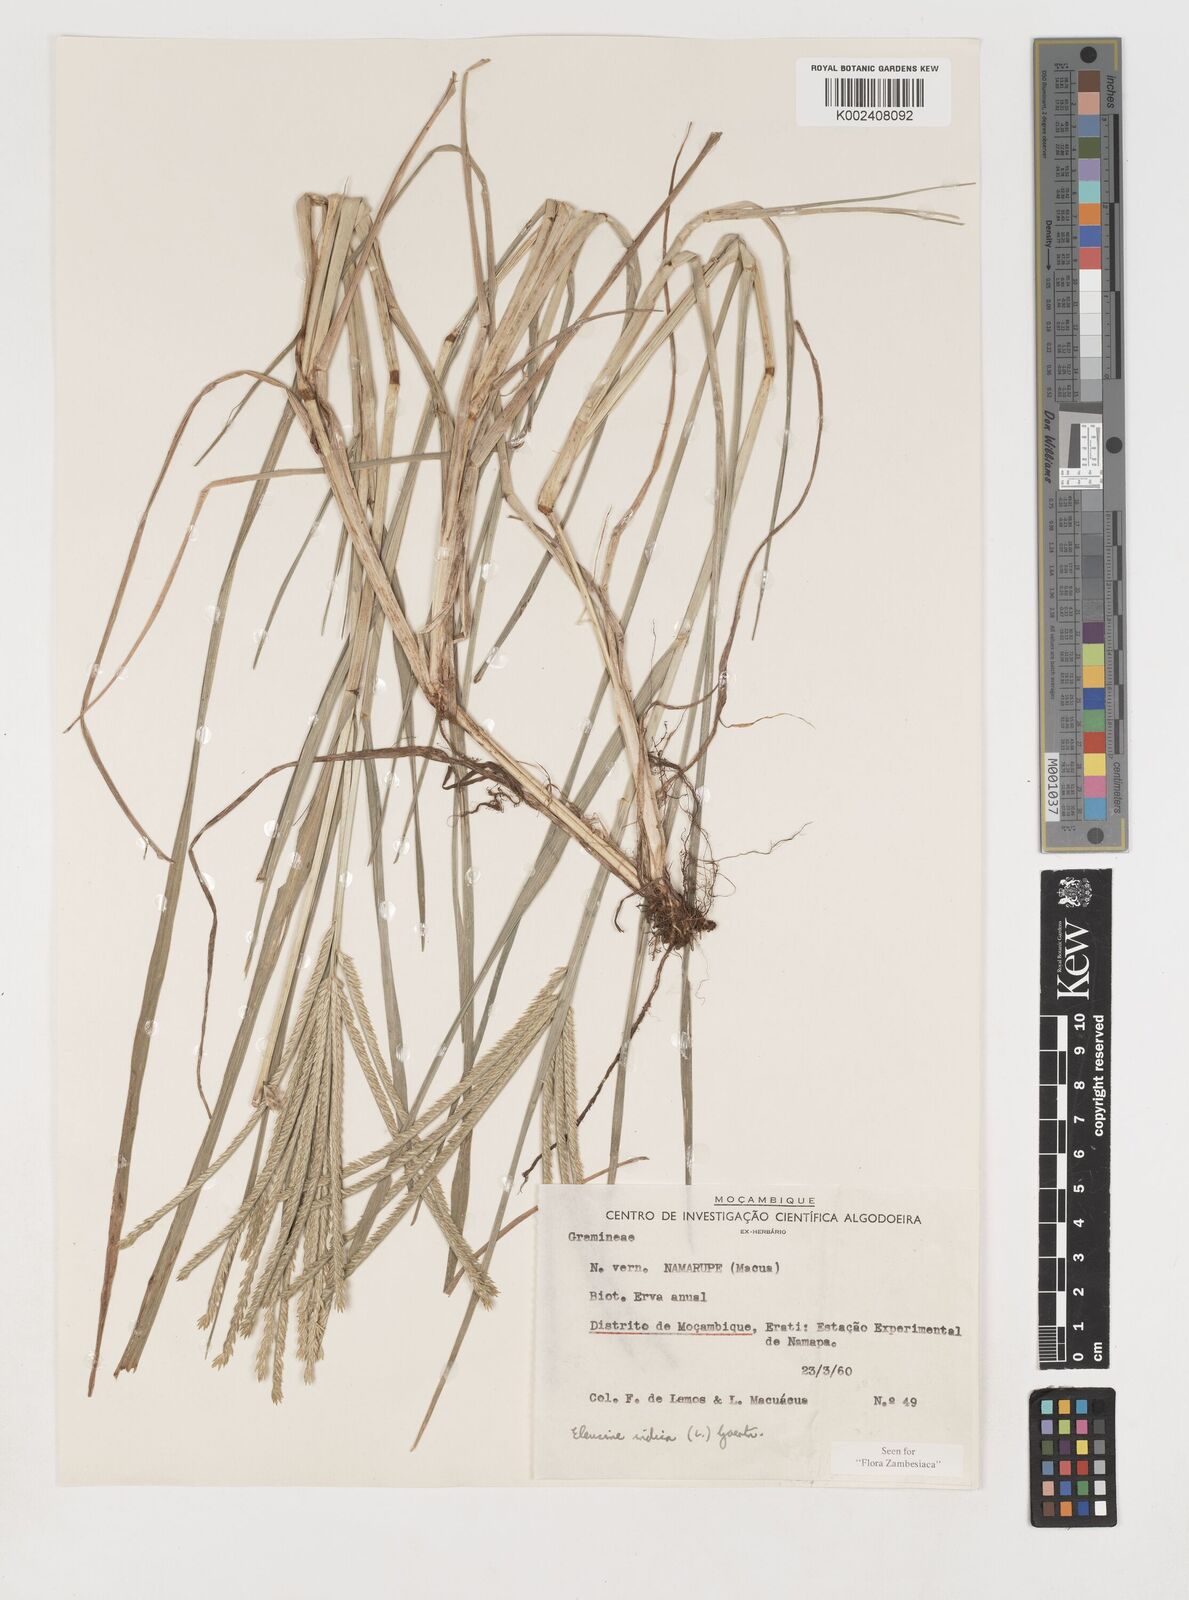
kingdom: Plantae
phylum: Tracheophyta
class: Liliopsida
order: Poales
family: Poaceae
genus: Eleusine
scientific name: Eleusine africana
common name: Wild african finger millet
